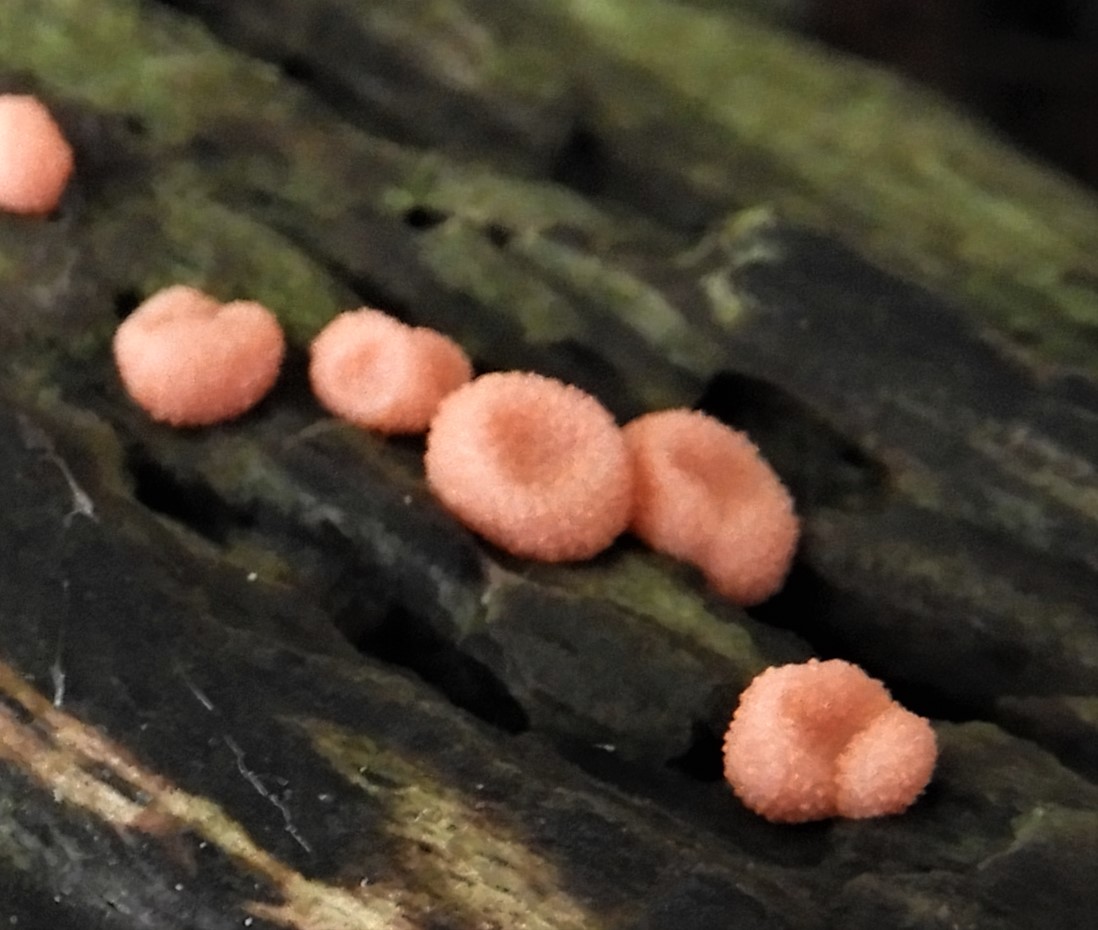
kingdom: Protozoa
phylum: Mycetozoa
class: Myxomycetes
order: Cribrariales
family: Tubiferaceae
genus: Lycogala
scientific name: Lycogala epidendrum
